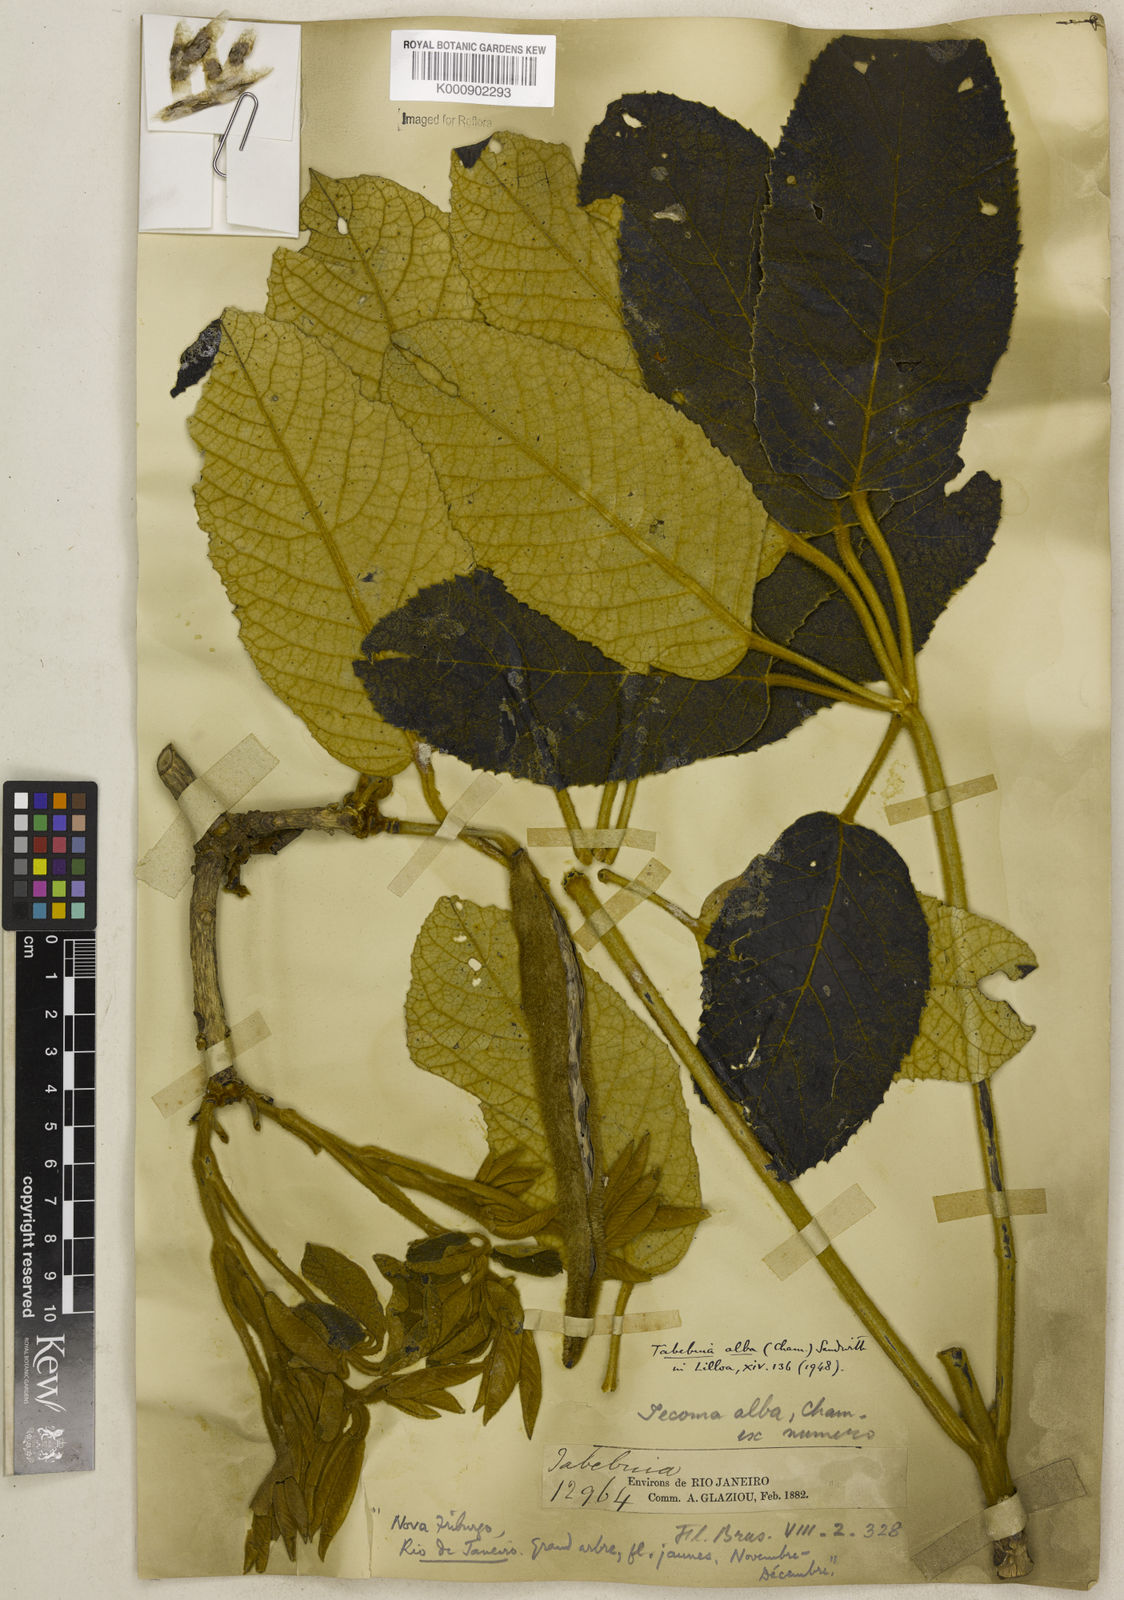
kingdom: Plantae
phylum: Tracheophyta
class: Magnoliopsida
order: Lamiales
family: Bignoniaceae
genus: Handroanthus
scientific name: Handroanthus albus
